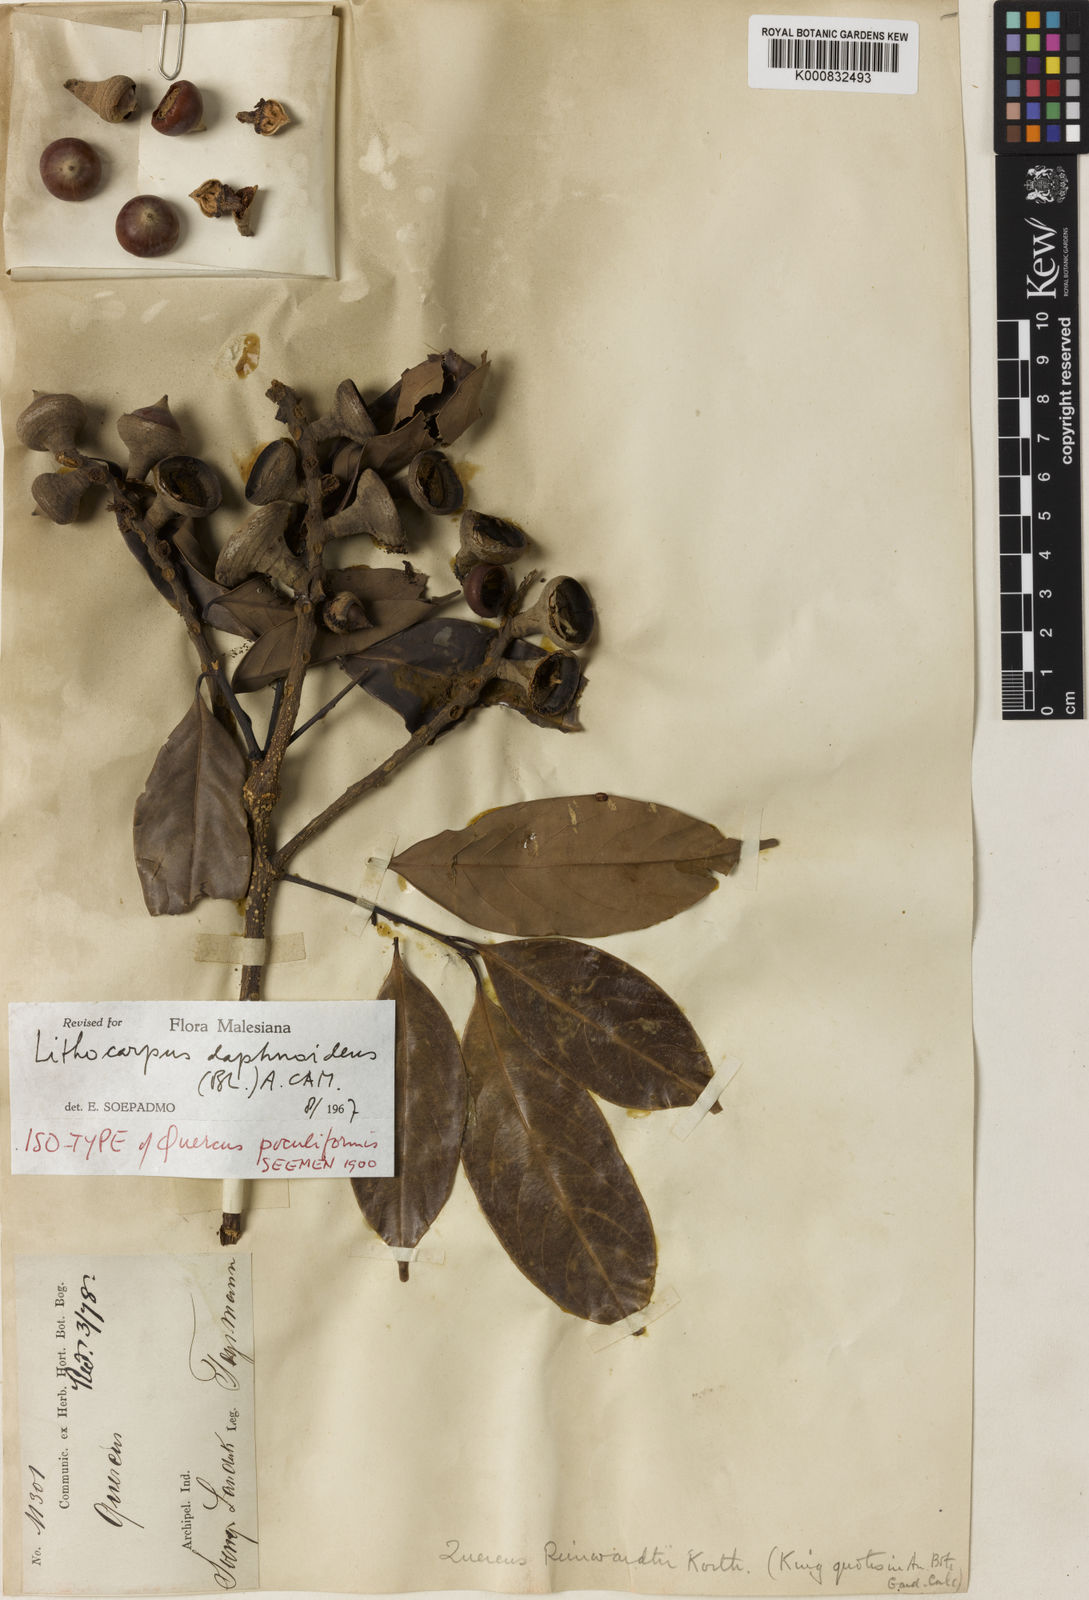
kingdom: Plantae
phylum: Tracheophyta
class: Magnoliopsida
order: Fagales
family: Fagaceae
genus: Lithocarpus
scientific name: Lithocarpus daphnoideus
